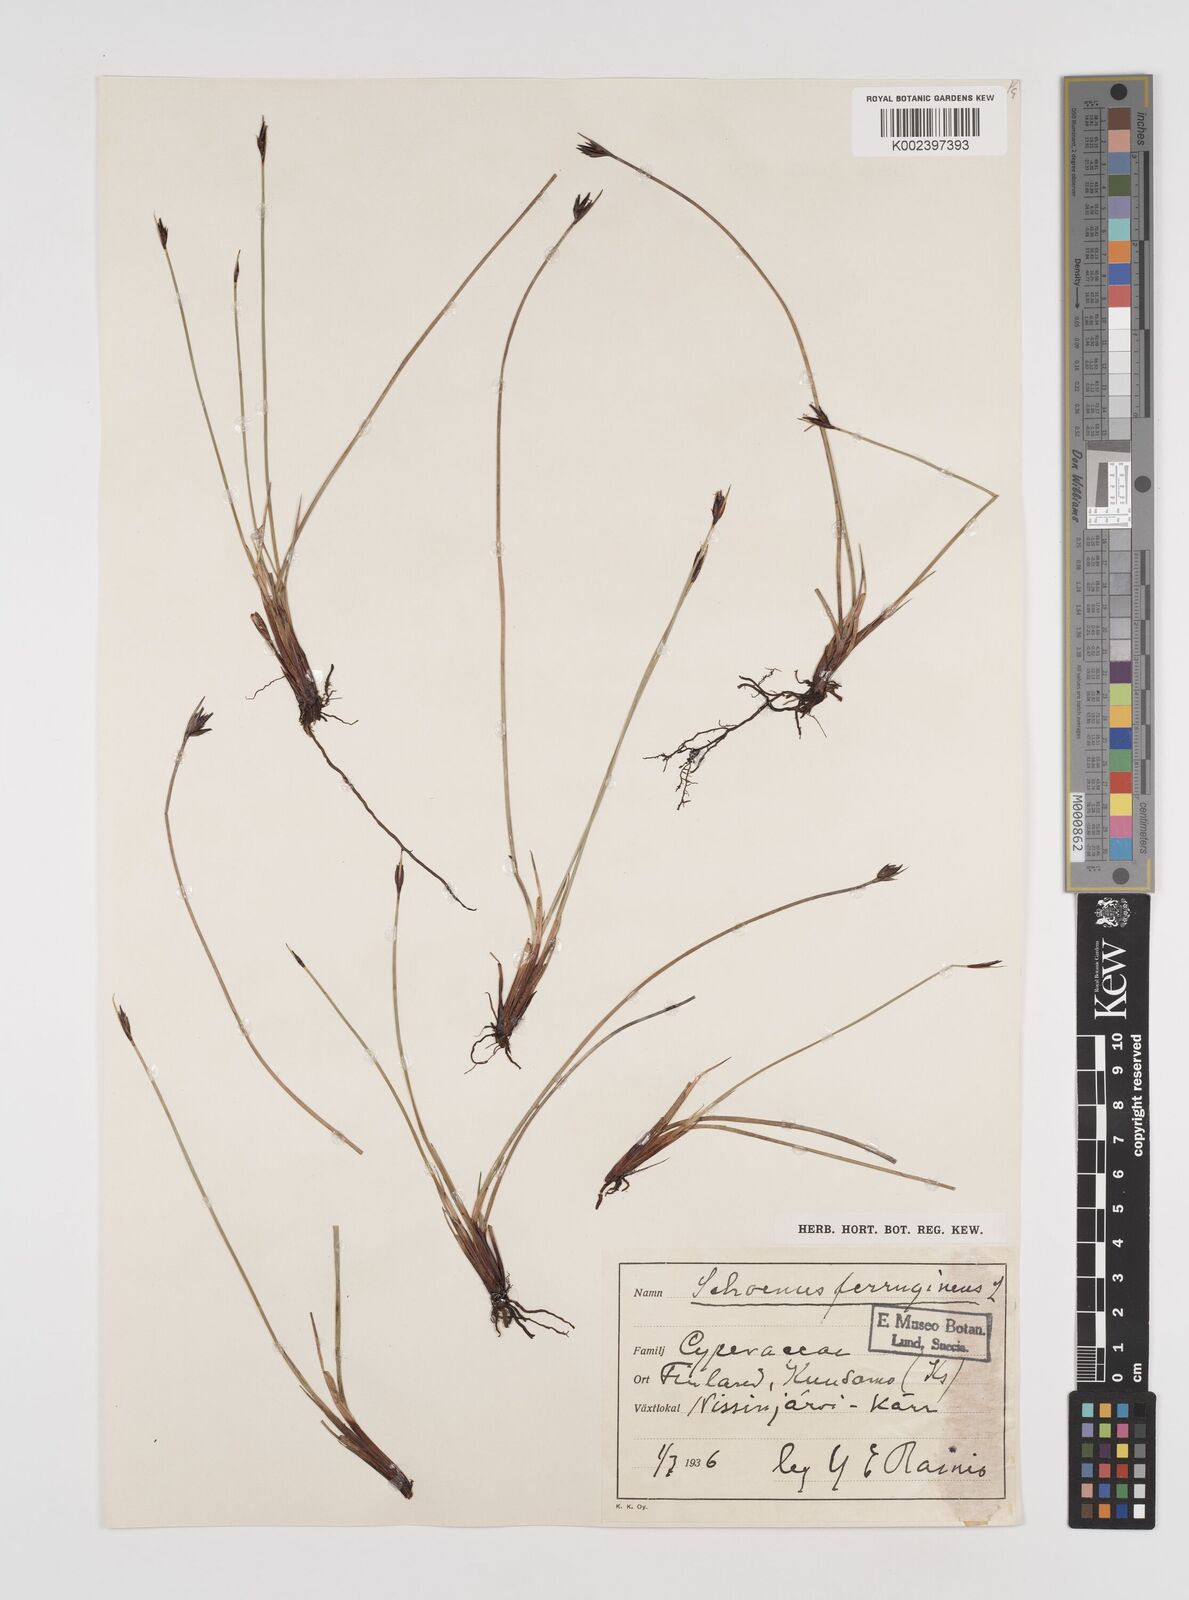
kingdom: Plantae
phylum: Tracheophyta
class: Liliopsida
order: Poales
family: Cyperaceae
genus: Schoenus
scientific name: Schoenus ferrugineus
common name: Brown bog-rush
